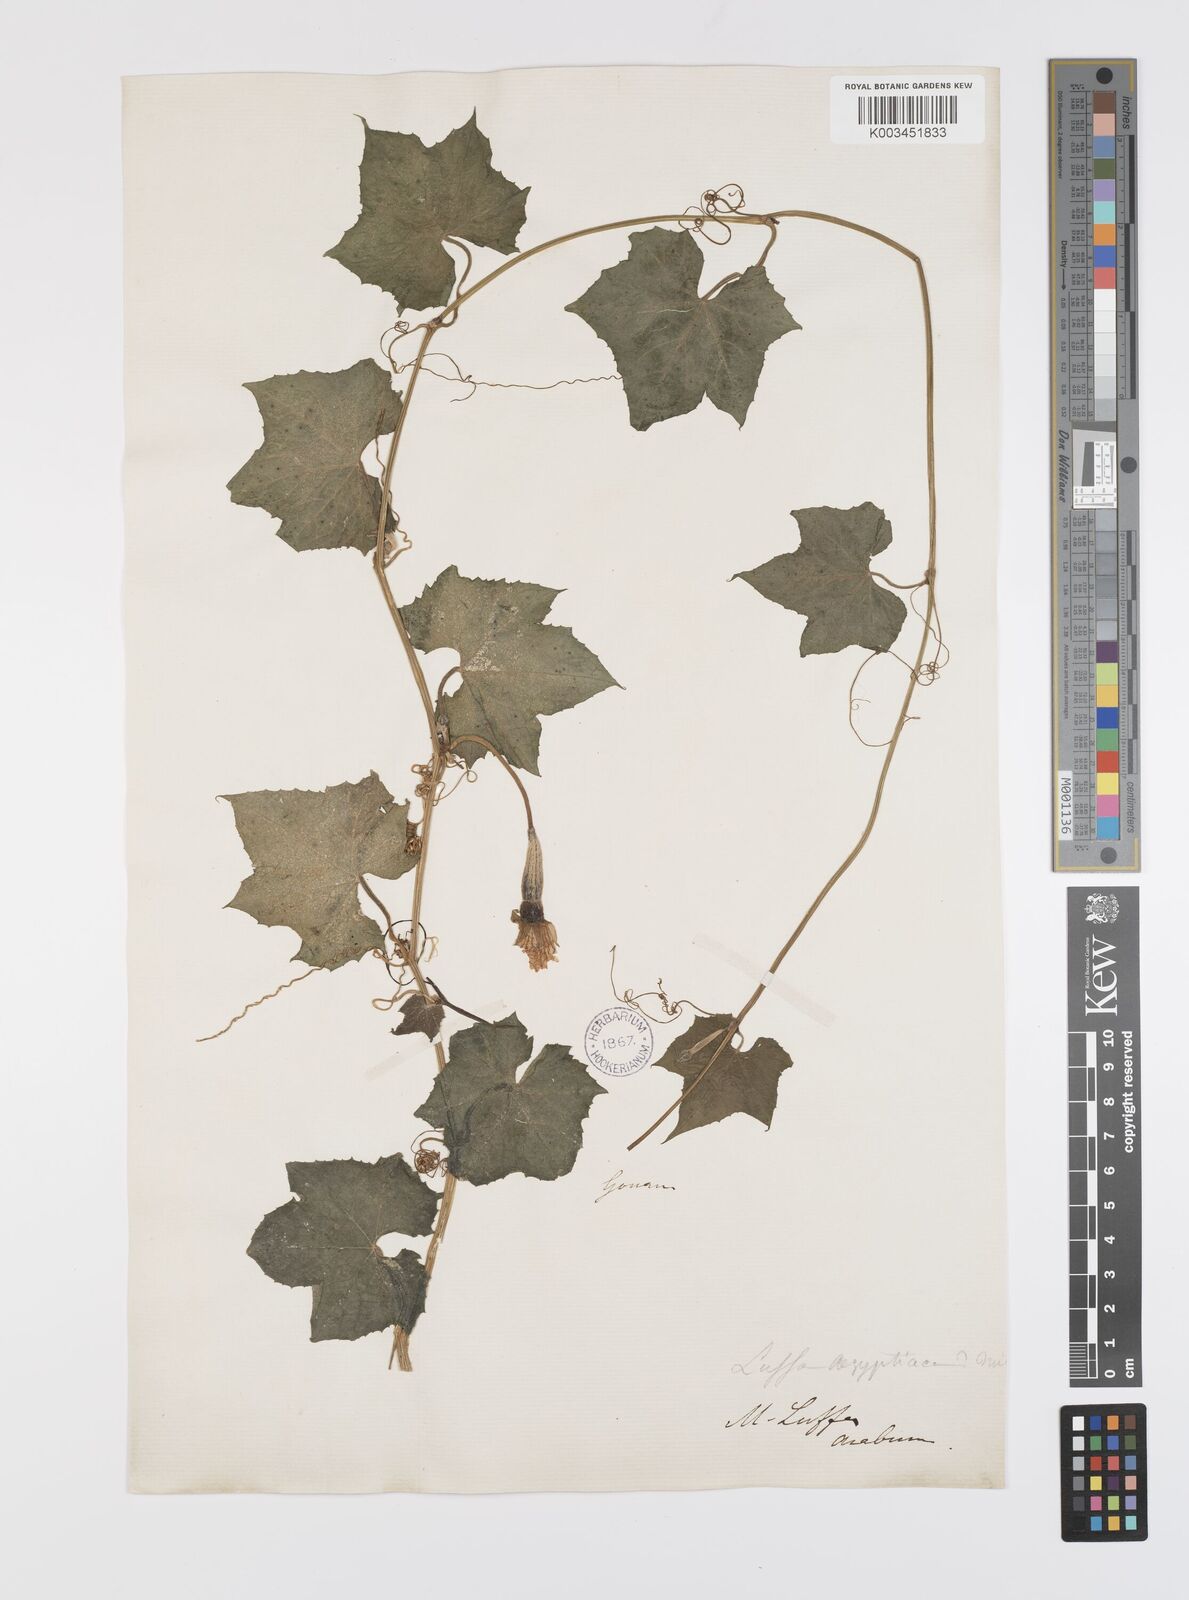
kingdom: Plantae
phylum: Tracheophyta
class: Magnoliopsida
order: Cucurbitales
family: Cucurbitaceae
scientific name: Cucurbitaceae
